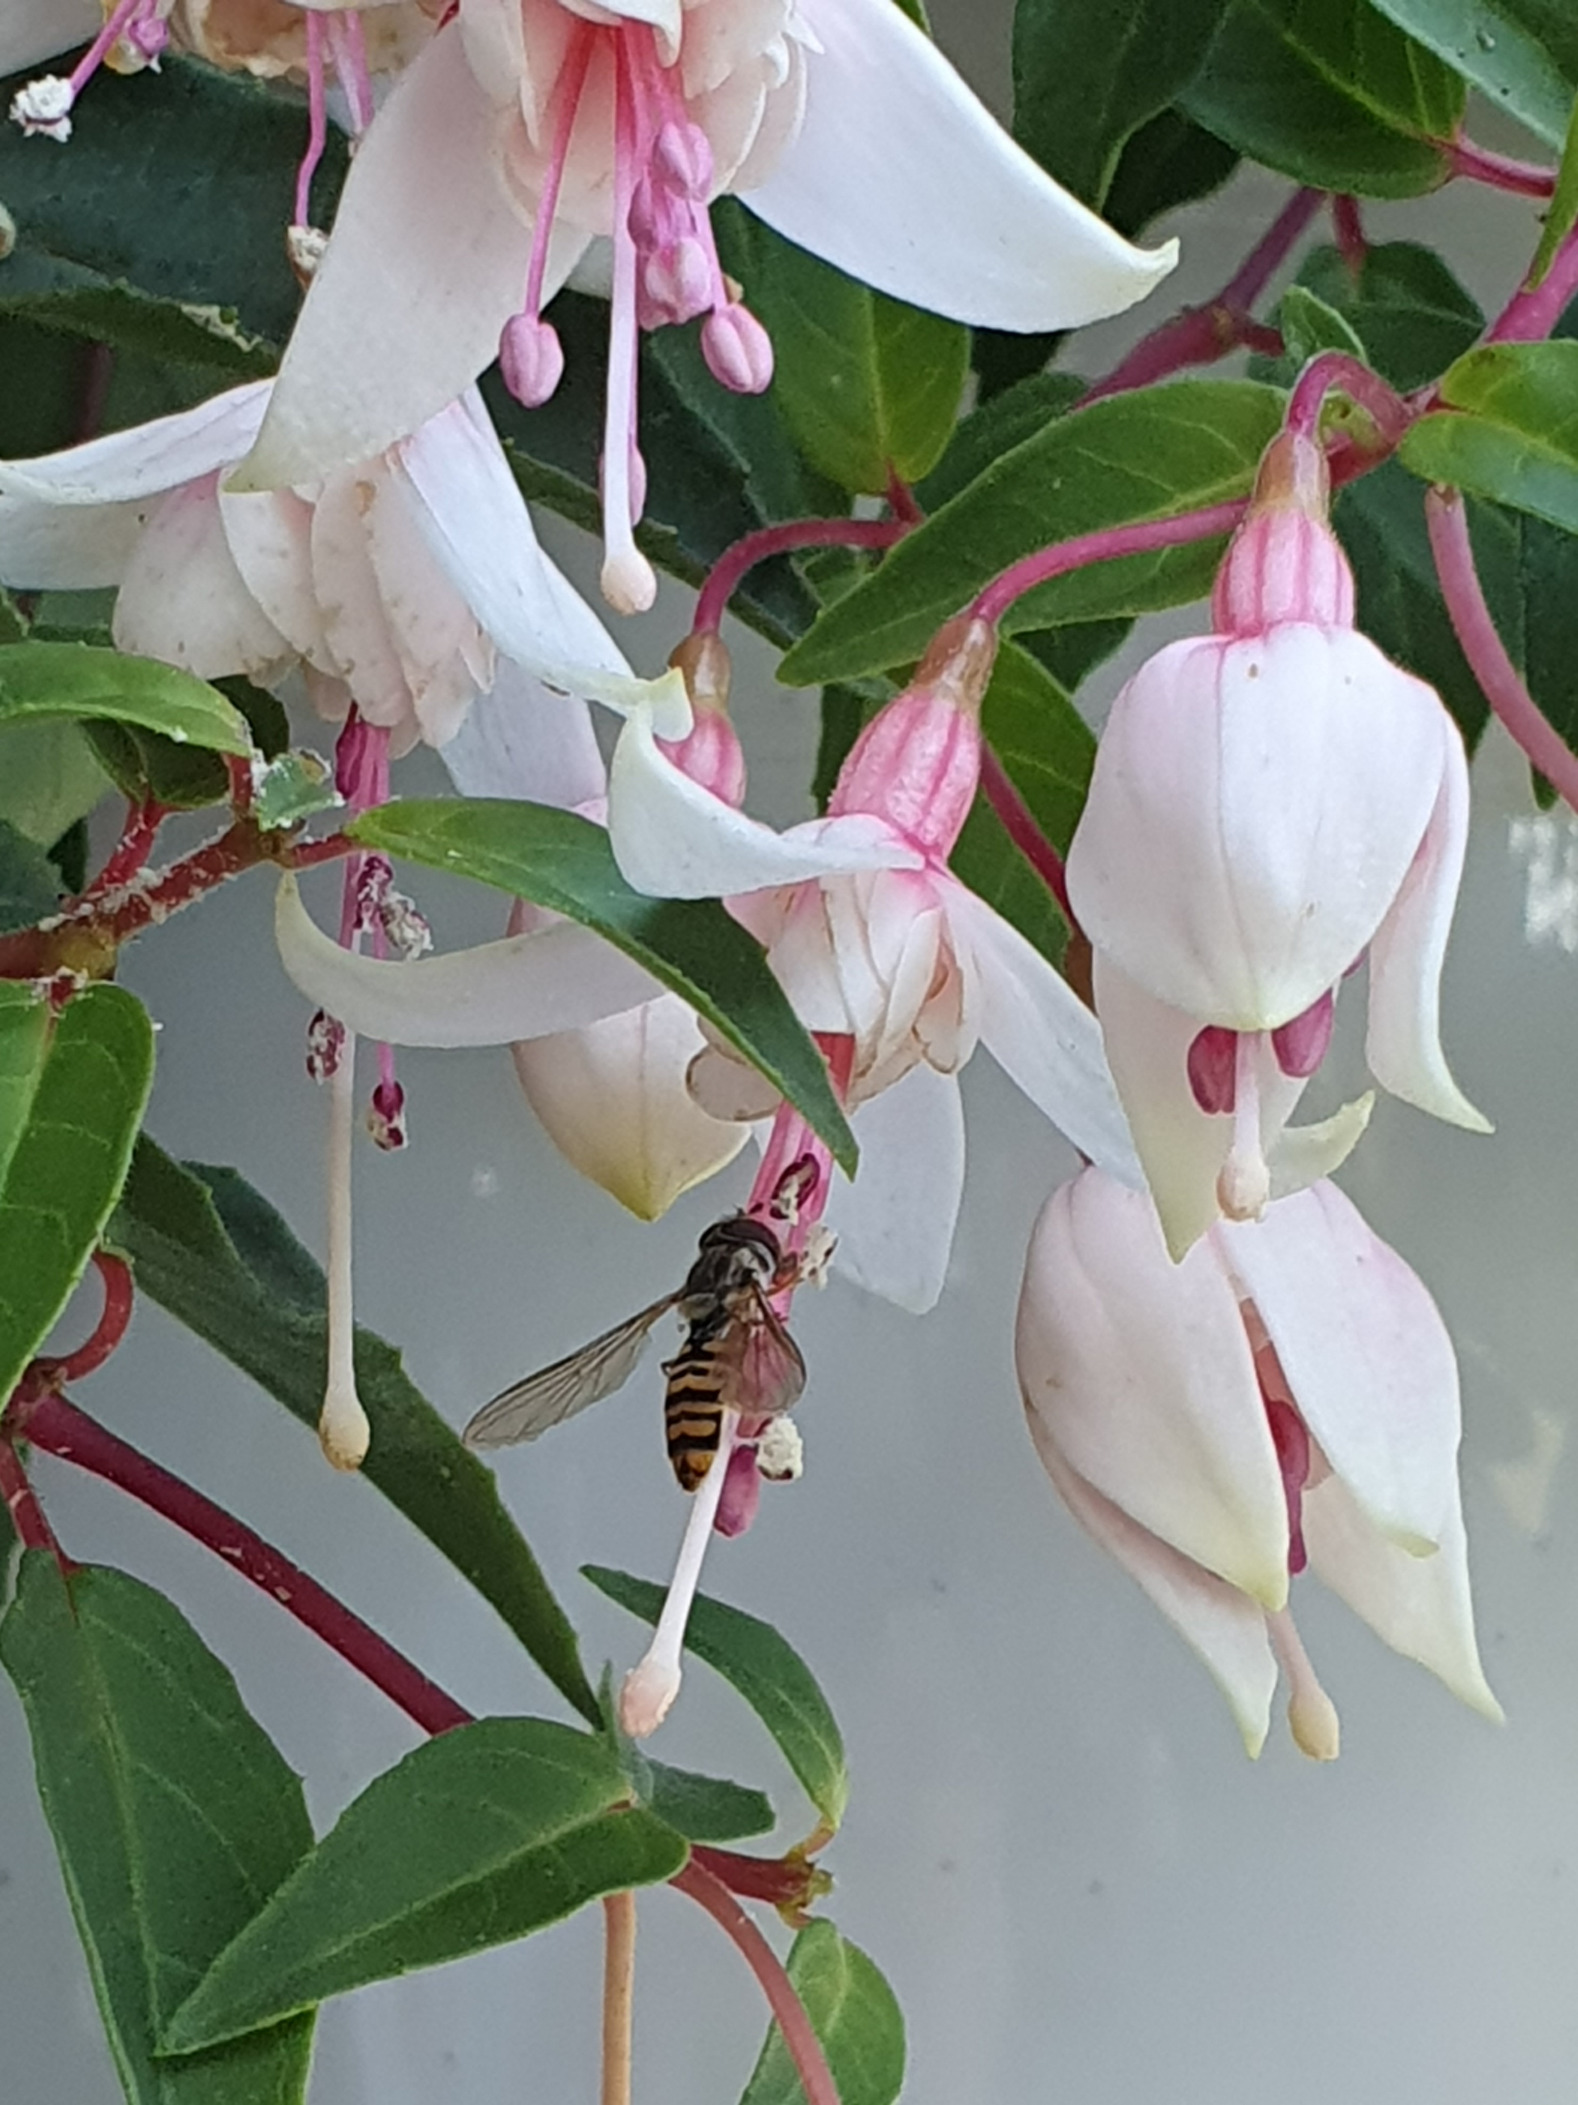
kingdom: Animalia
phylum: Arthropoda
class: Insecta
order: Diptera
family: Syrphidae
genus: Episyrphus
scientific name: Episyrphus balteatus
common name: Dobbeltbåndet svirreflue
